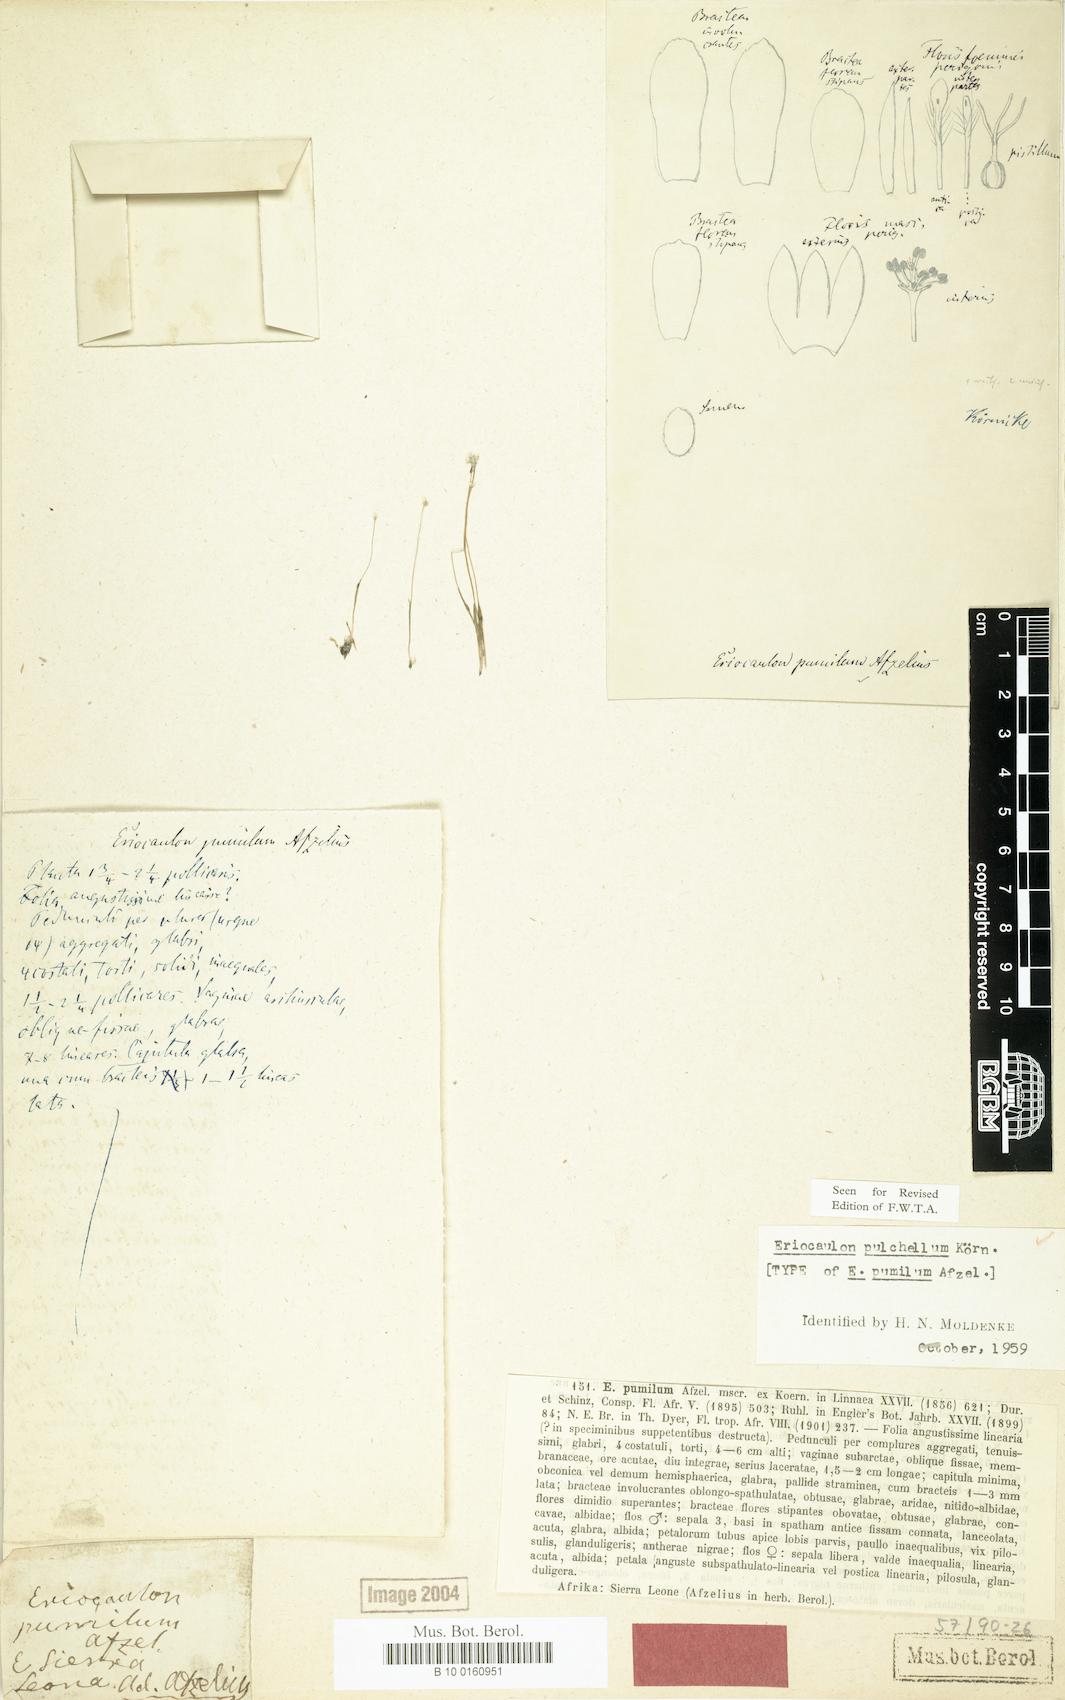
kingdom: Plantae
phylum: Tracheophyta
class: Liliopsida
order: Poales
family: Eriocaulaceae
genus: Eriocaulon
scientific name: Eriocaulon pulchellum
